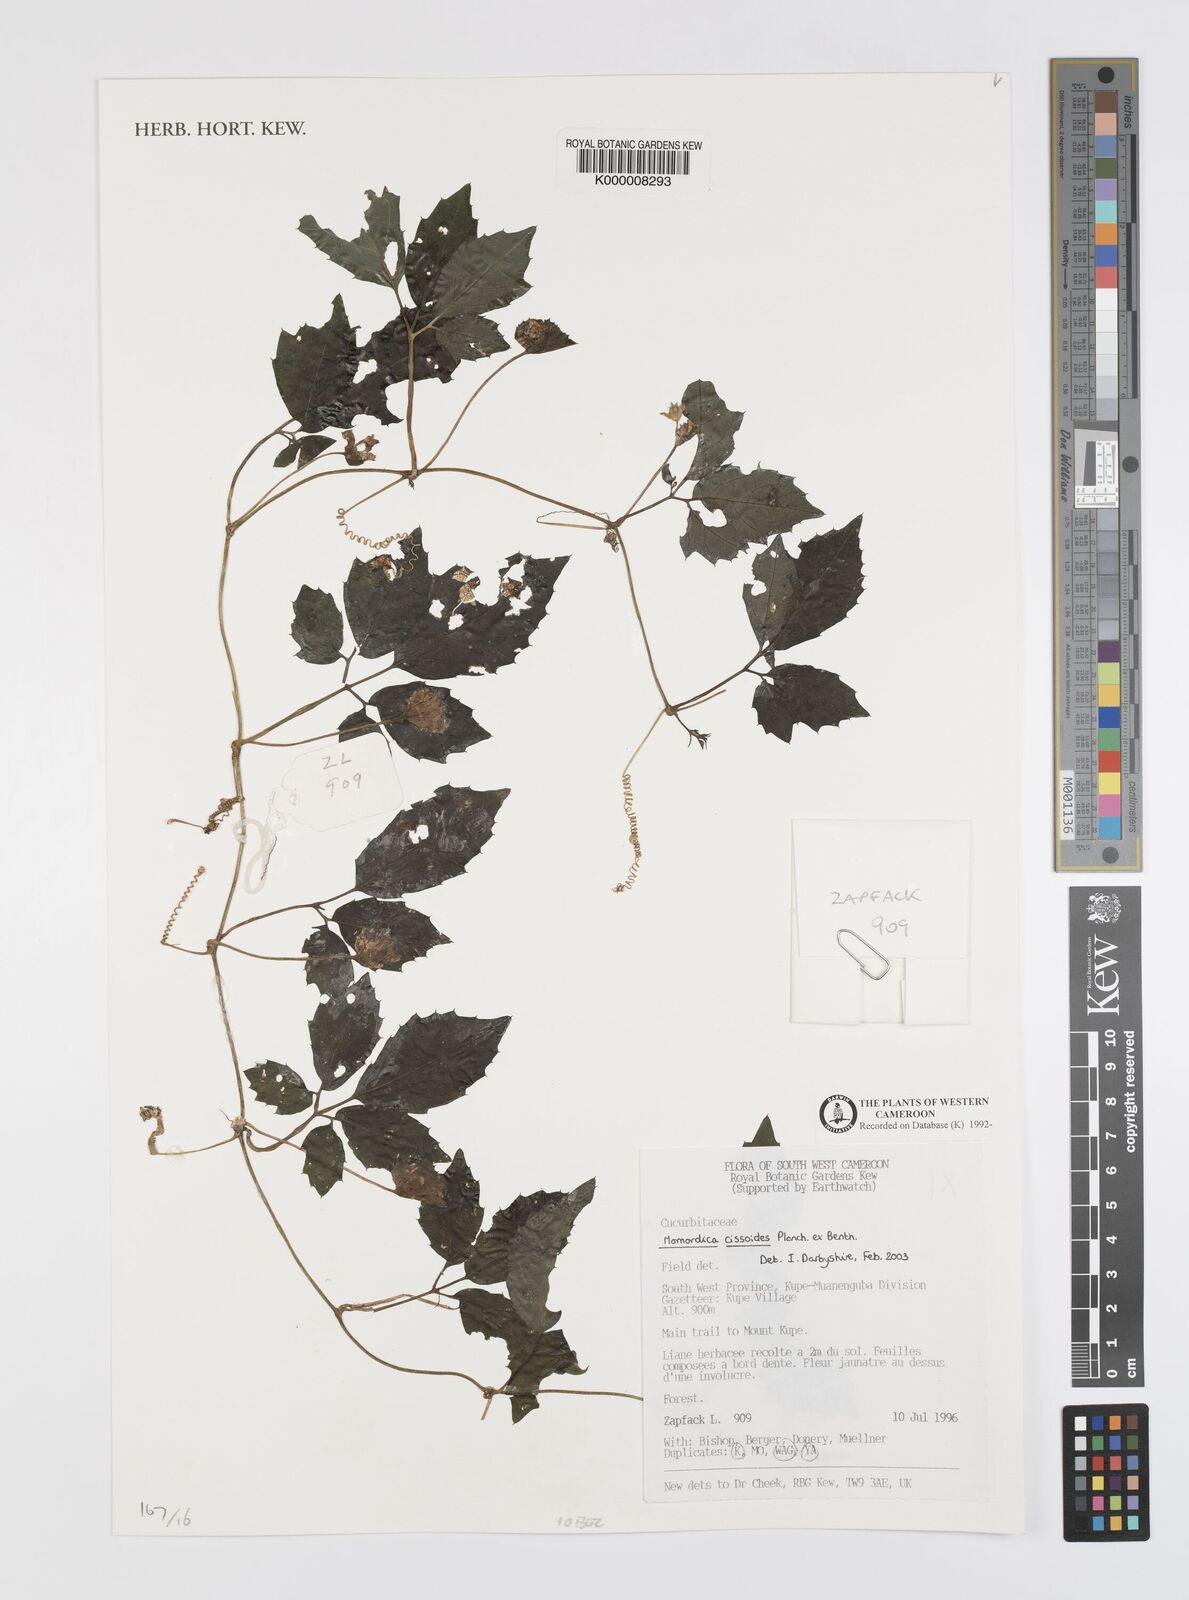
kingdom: Plantae
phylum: Tracheophyta
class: Magnoliopsida
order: Cucurbitales
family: Cucurbitaceae
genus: Momordica
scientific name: Momordica cissoides
